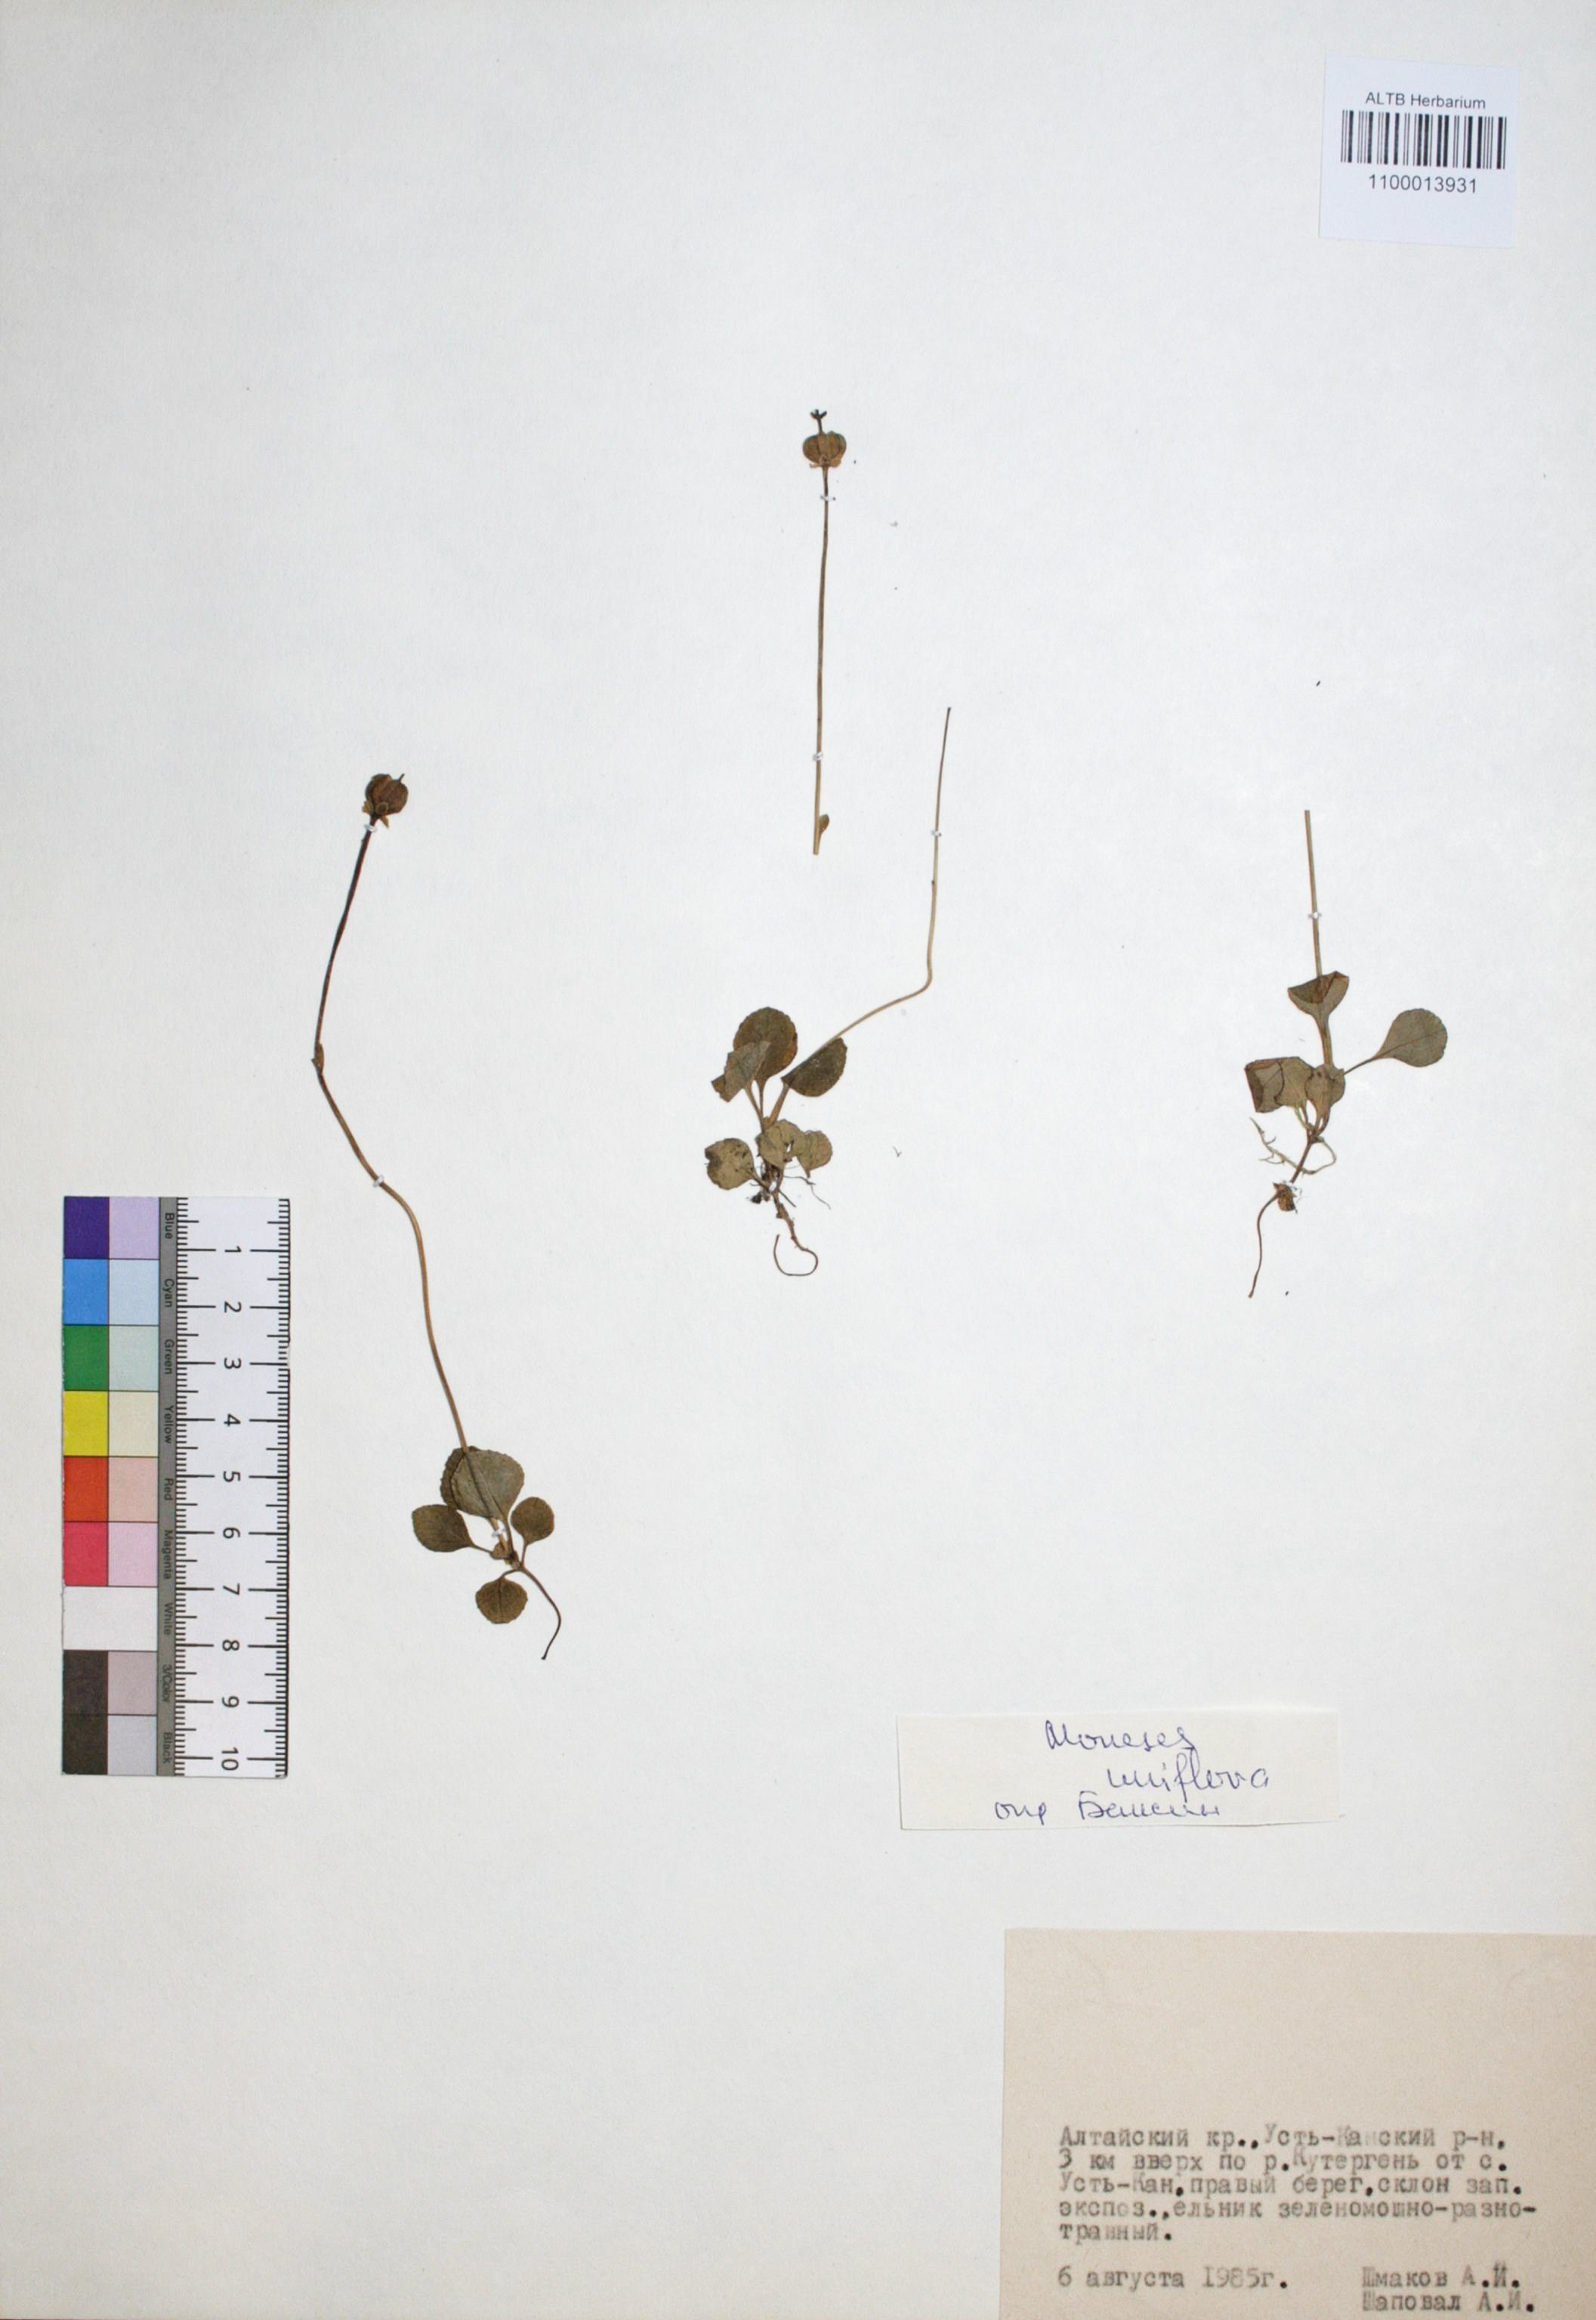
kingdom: Plantae
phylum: Tracheophyta
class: Magnoliopsida
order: Ericales
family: Ericaceae
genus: Moneses
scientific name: Moneses uniflora
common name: One-flowered wintergreen
